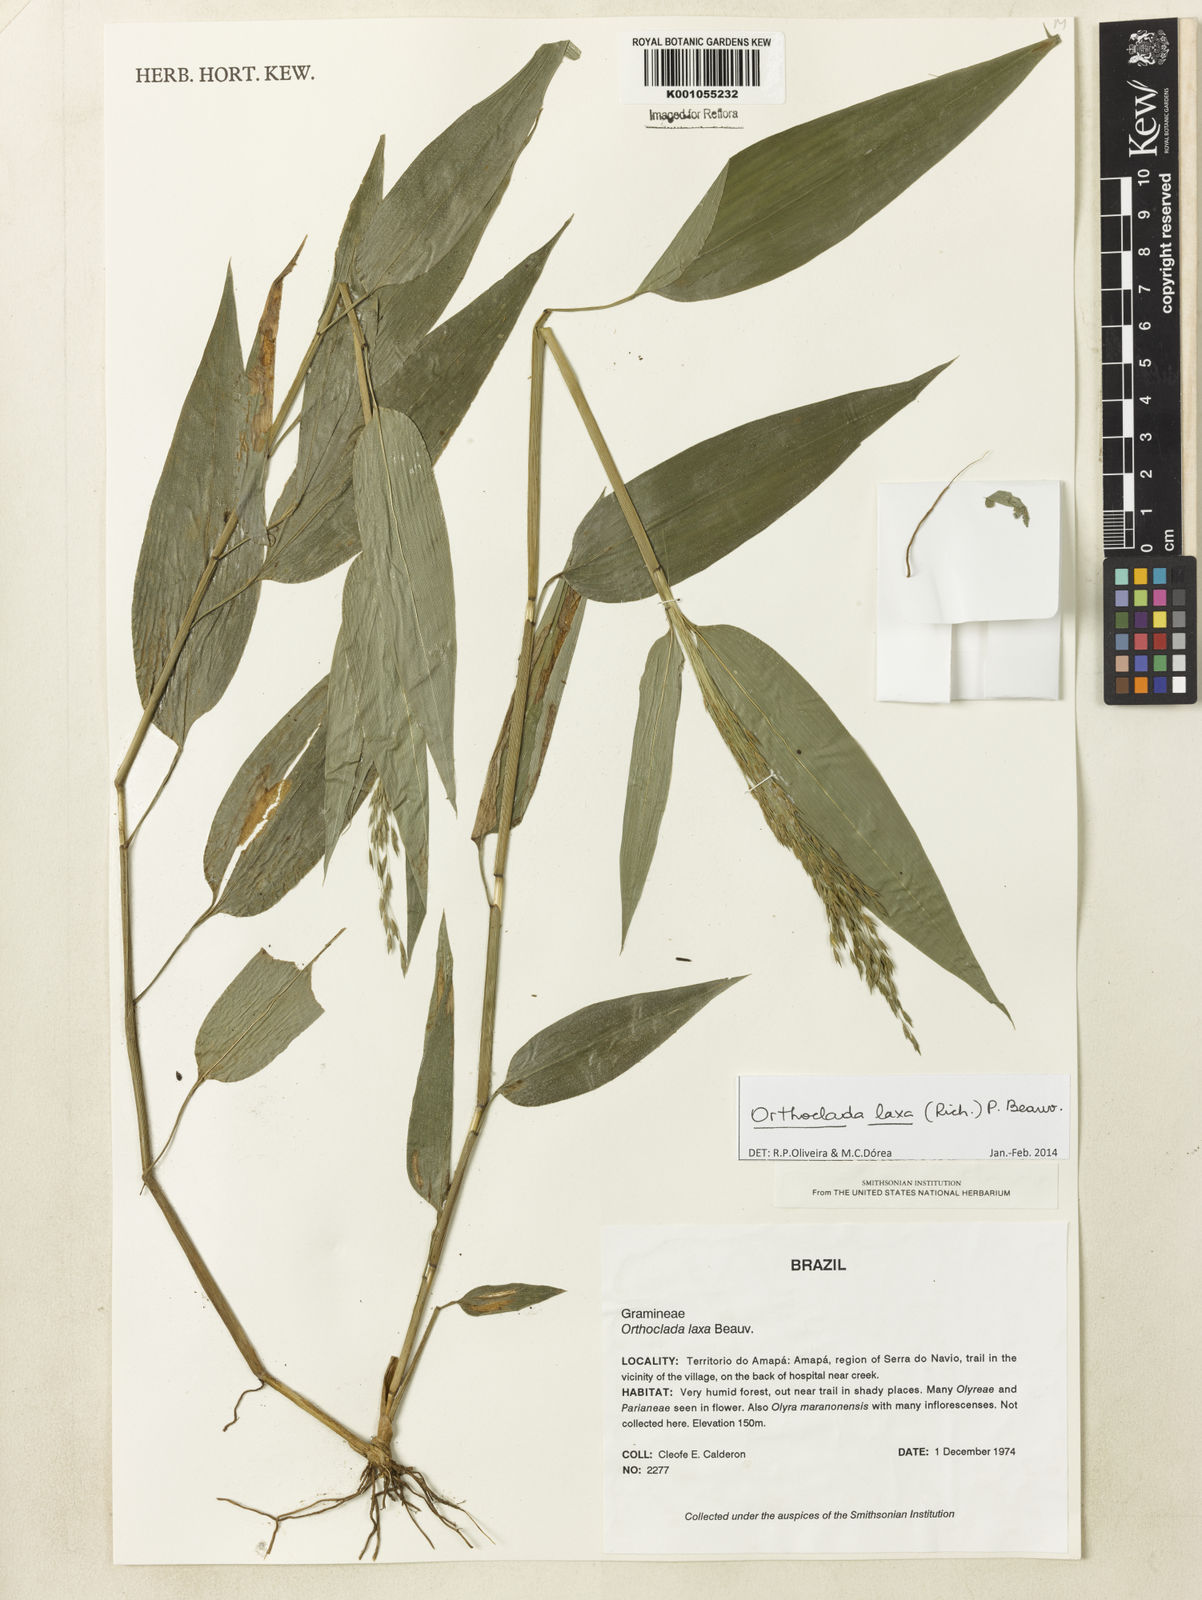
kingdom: Plantae
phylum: Tracheophyta
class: Liliopsida
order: Poales
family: Poaceae
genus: Orthoclada
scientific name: Orthoclada laxa
